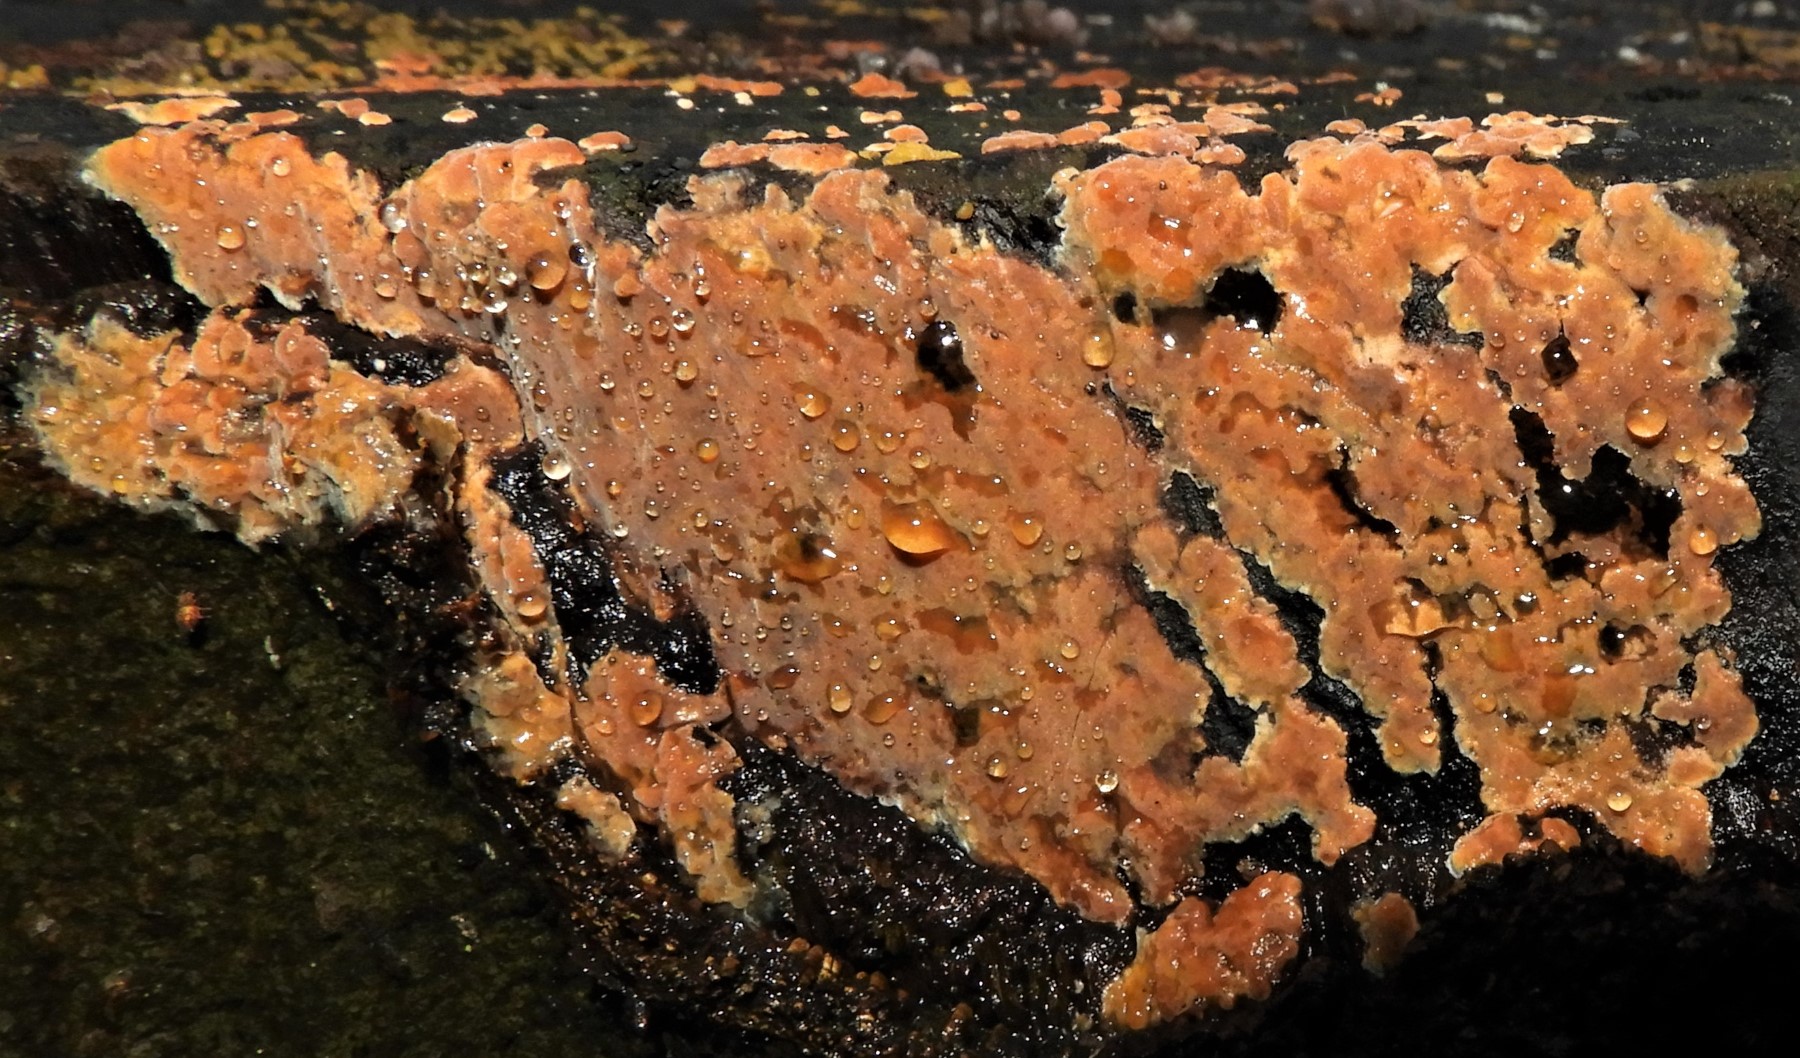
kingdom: Fungi
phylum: Basidiomycota
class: Agaricomycetes
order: Russulales
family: Peniophoraceae
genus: Peniophora
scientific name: Peniophora incarnata
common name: laksefarvet voksskind
